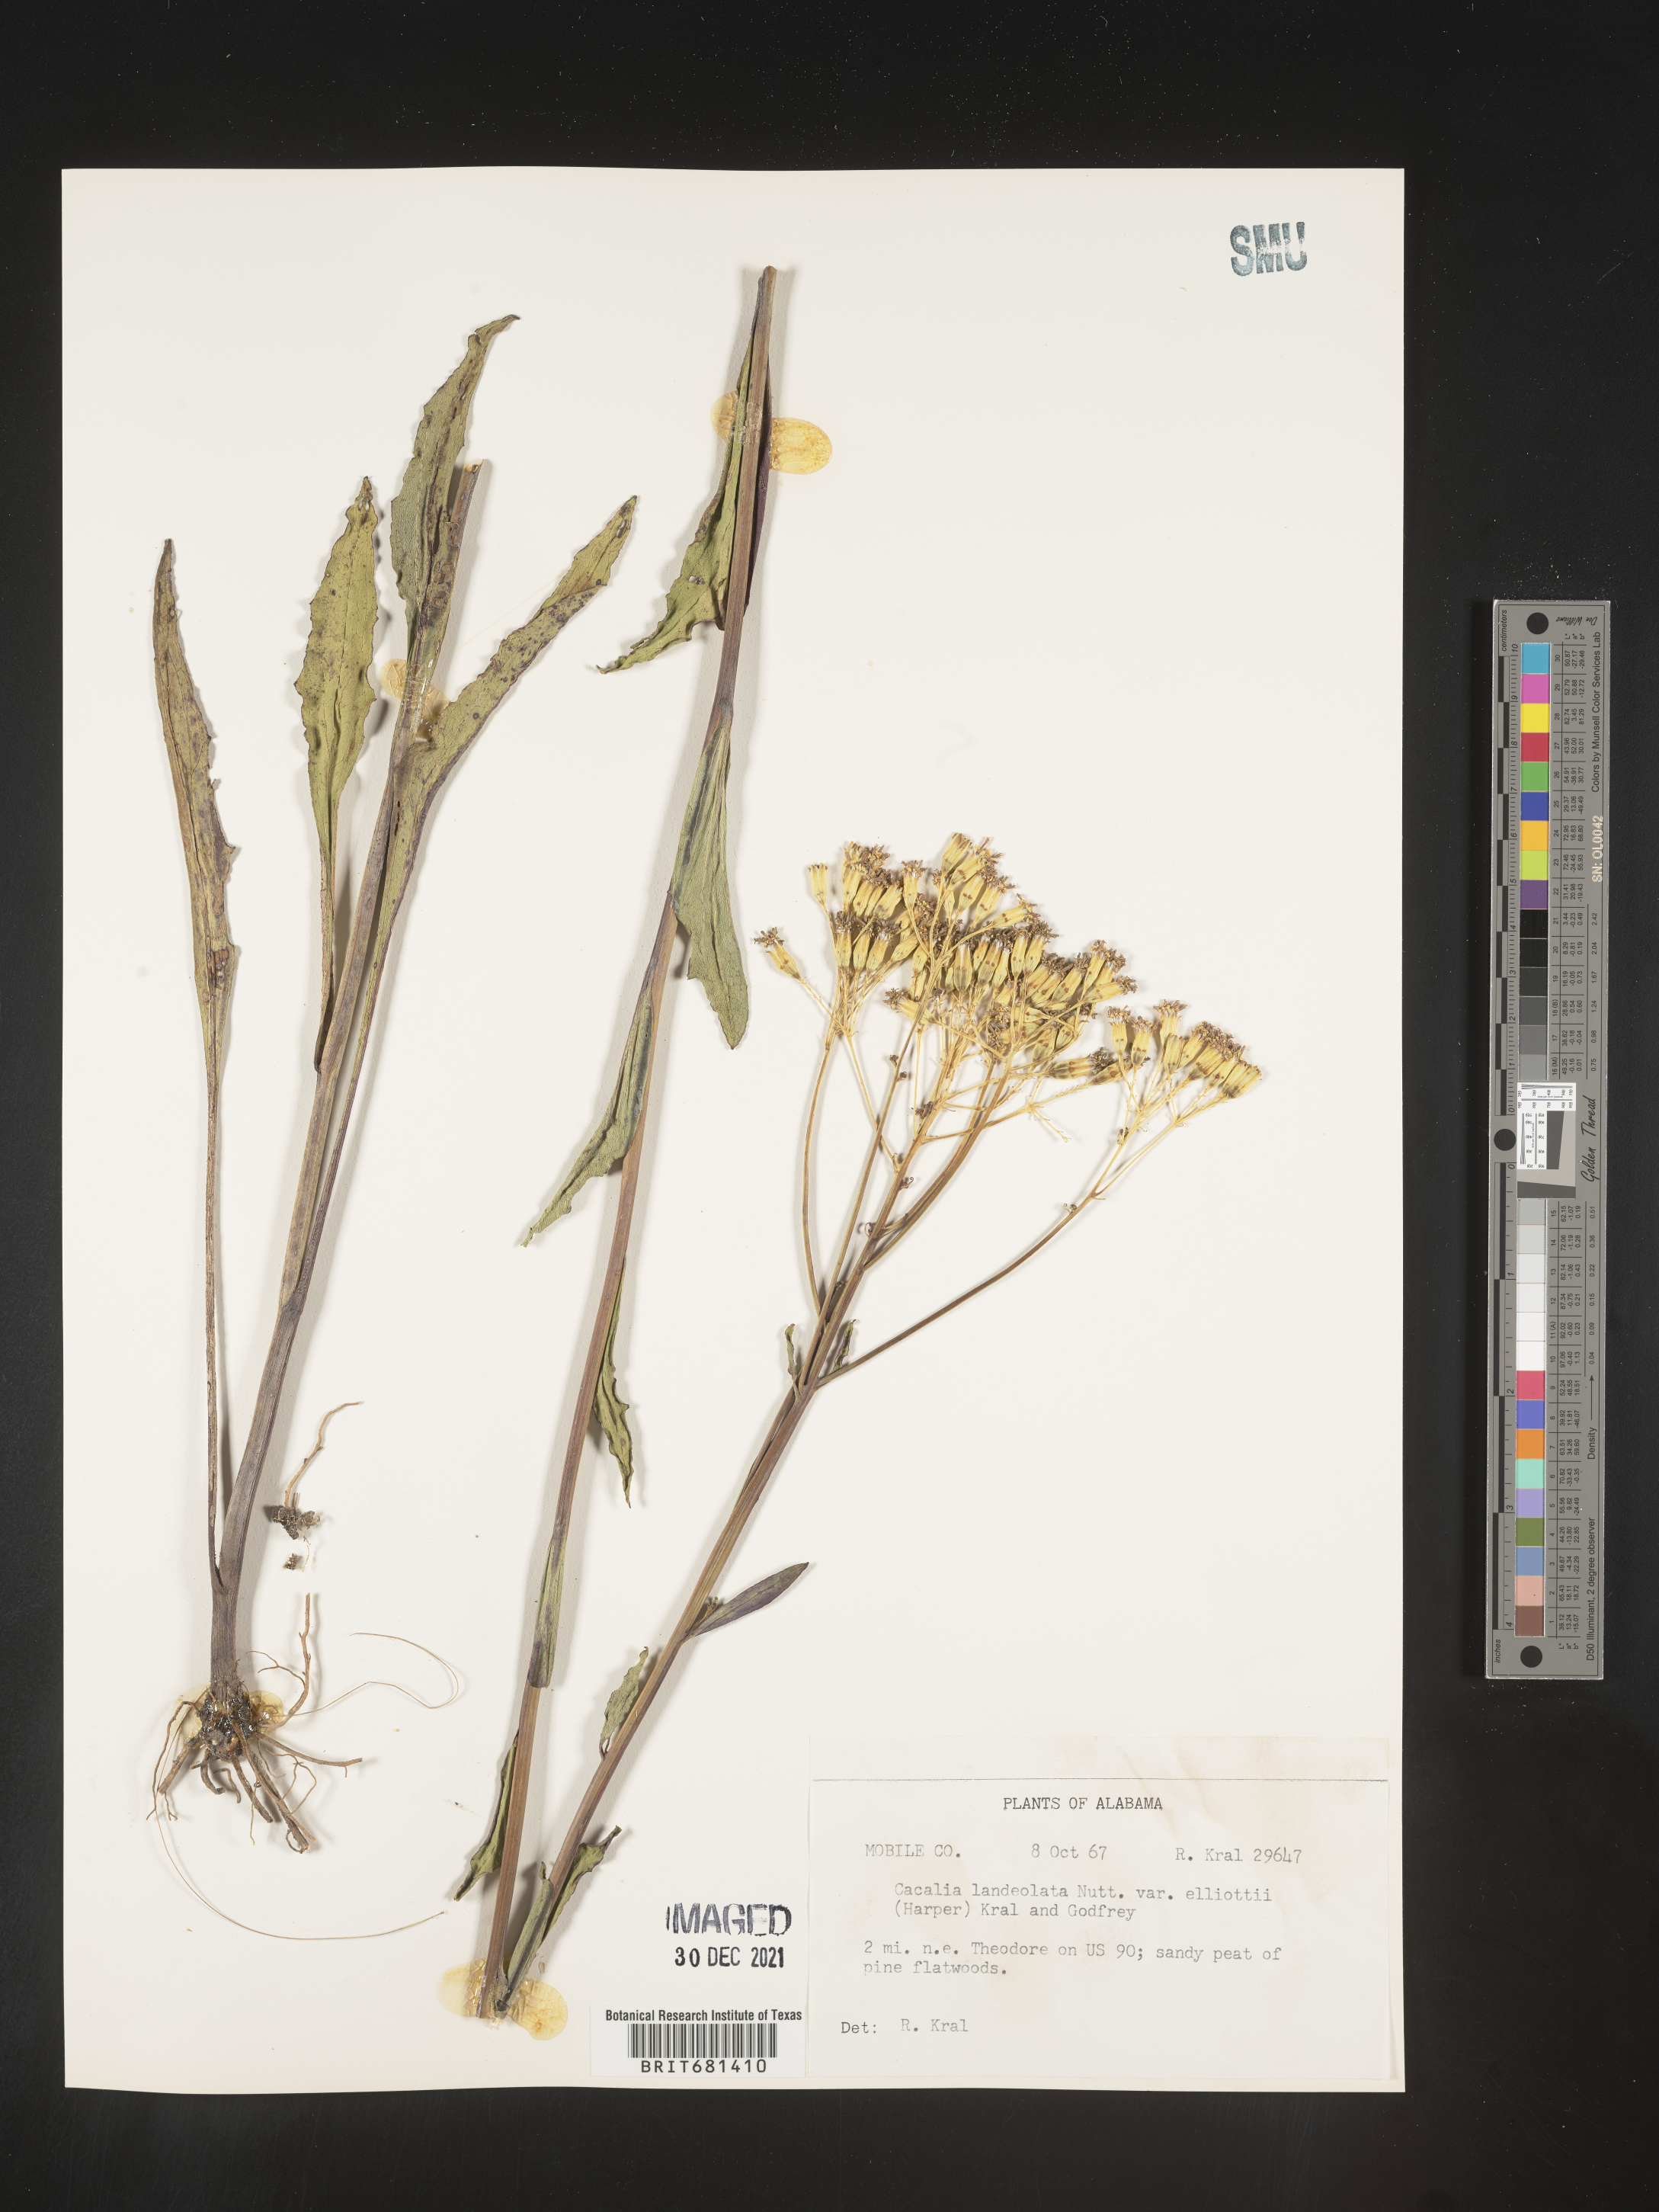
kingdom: Plantae
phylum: Tracheophyta
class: Magnoliopsida
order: Asterales
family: Asteraceae
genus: Arnoglossum
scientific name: Arnoglossum ovatum
